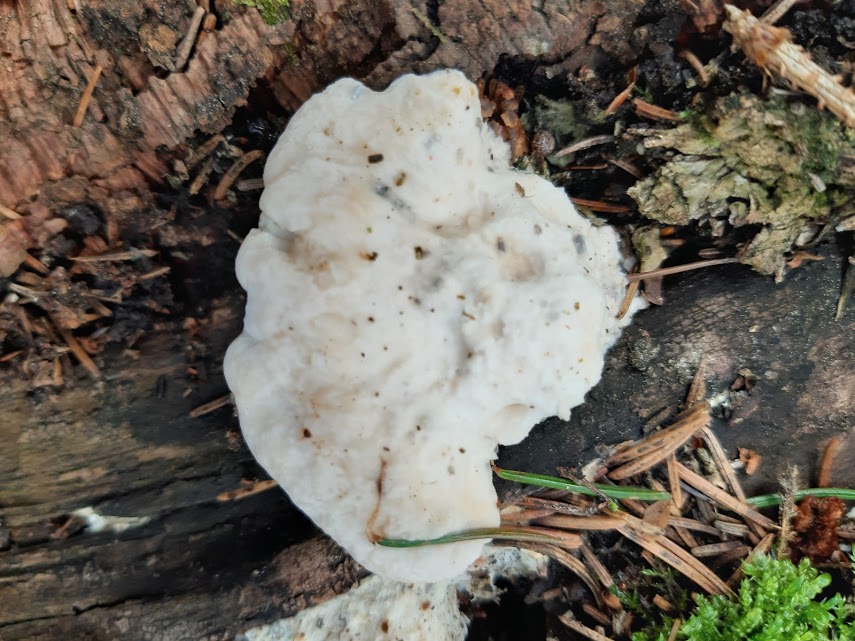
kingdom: Fungi
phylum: Basidiomycota
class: Agaricomycetes
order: Polyporales
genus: Amaropostia
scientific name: Amaropostia stiptica
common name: bitter kødporesvamp
